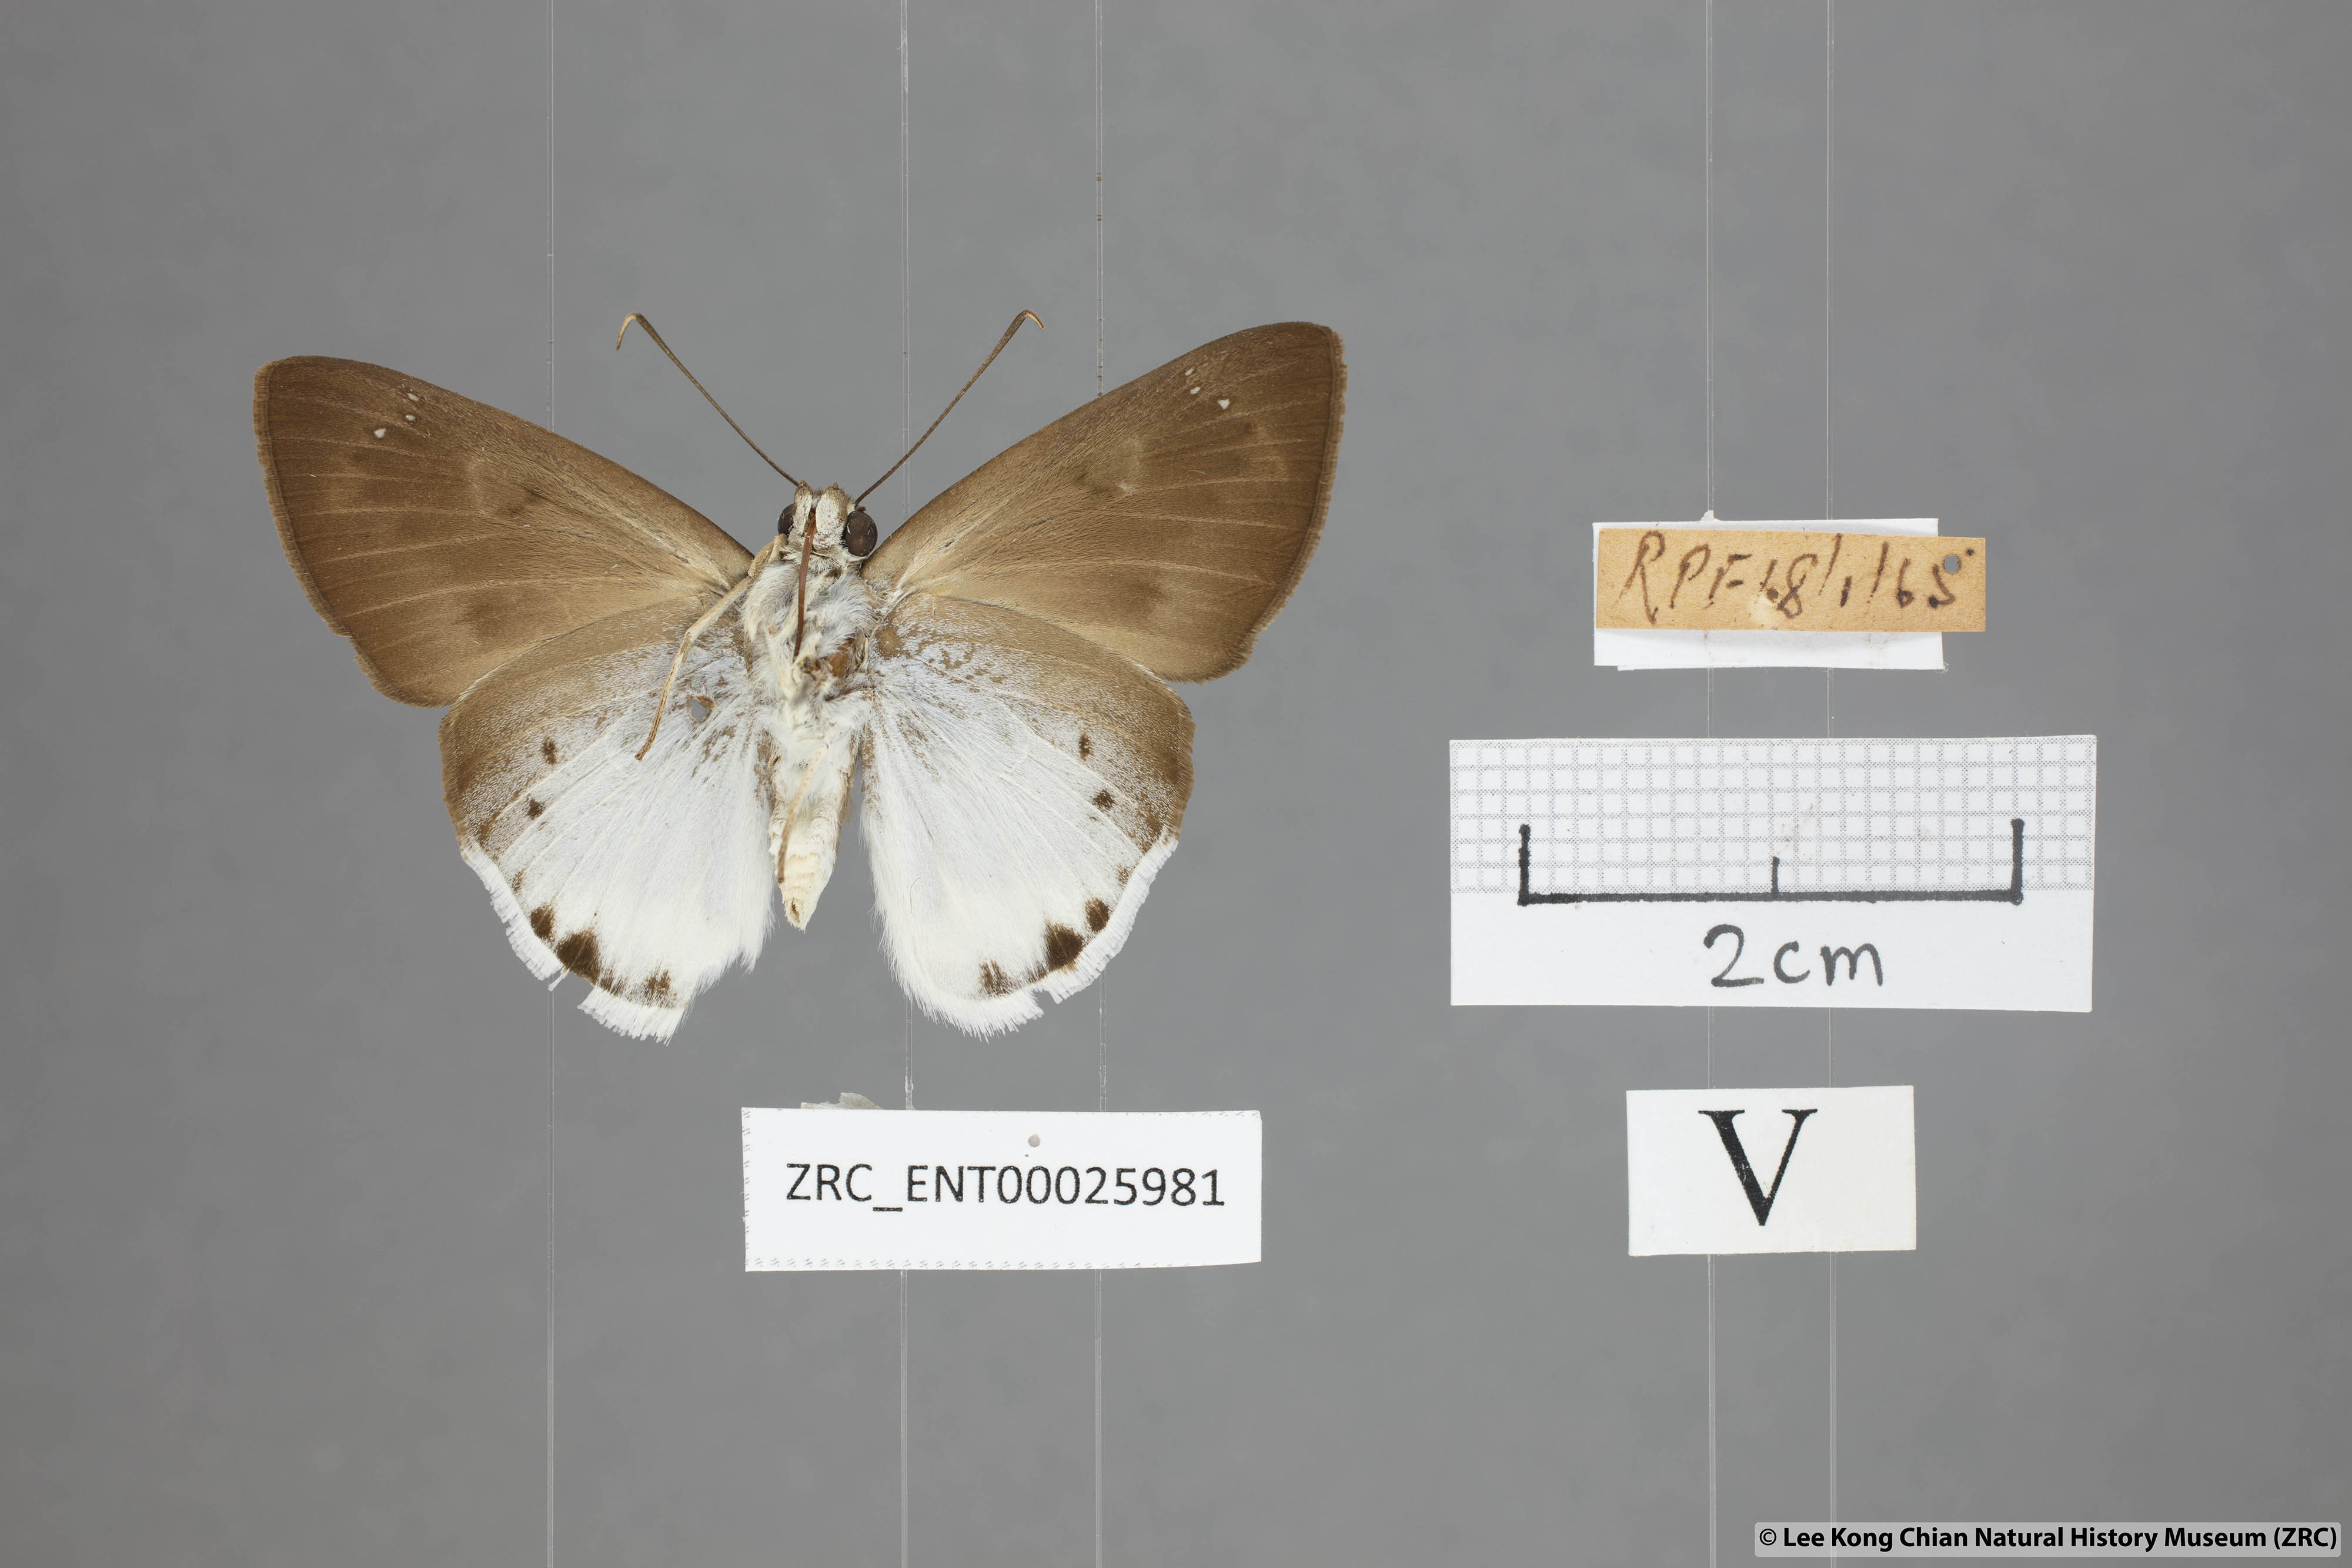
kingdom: Animalia
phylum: Arthropoda
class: Insecta
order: Lepidoptera
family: Hesperiidae
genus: Tagiades
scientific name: Tagiades gana
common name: Suffused snow flat
